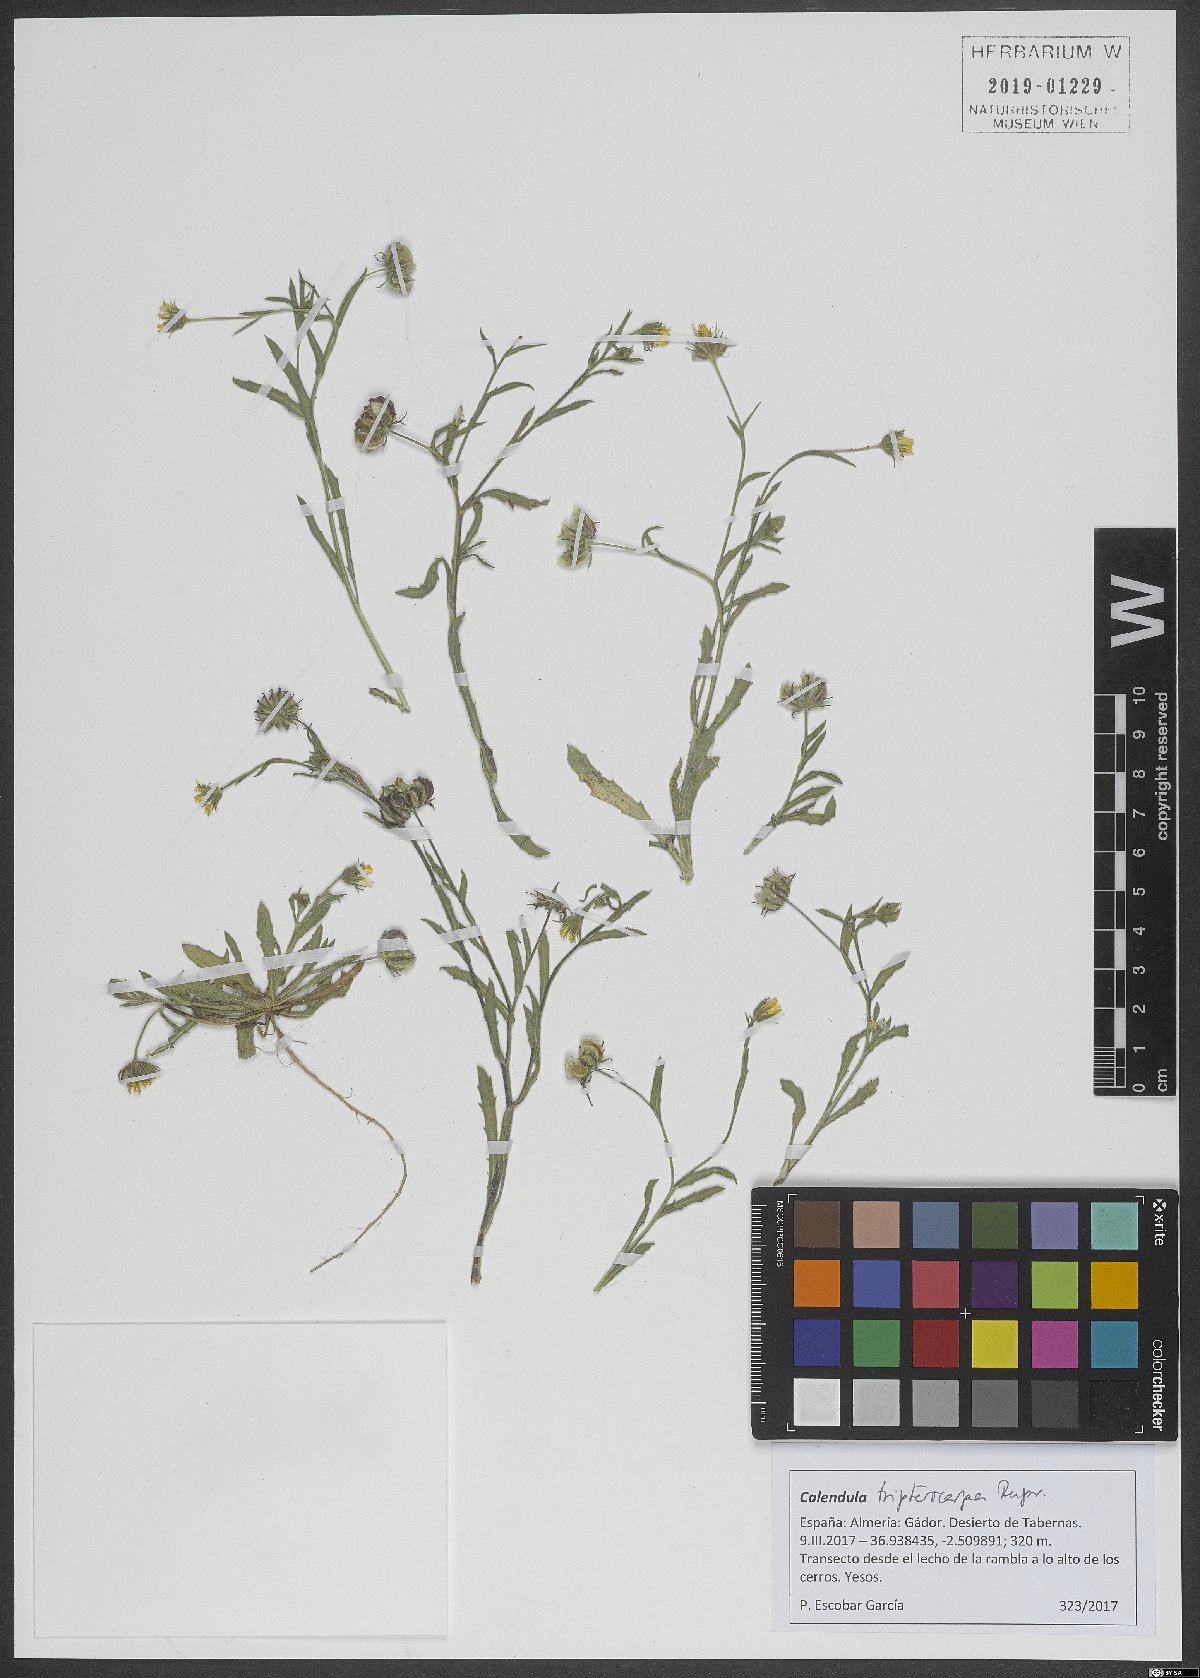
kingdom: Plantae
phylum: Tracheophyta
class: Magnoliopsida
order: Asterales
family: Asteraceae
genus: Calendula
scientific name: Calendula tripterocarpa
